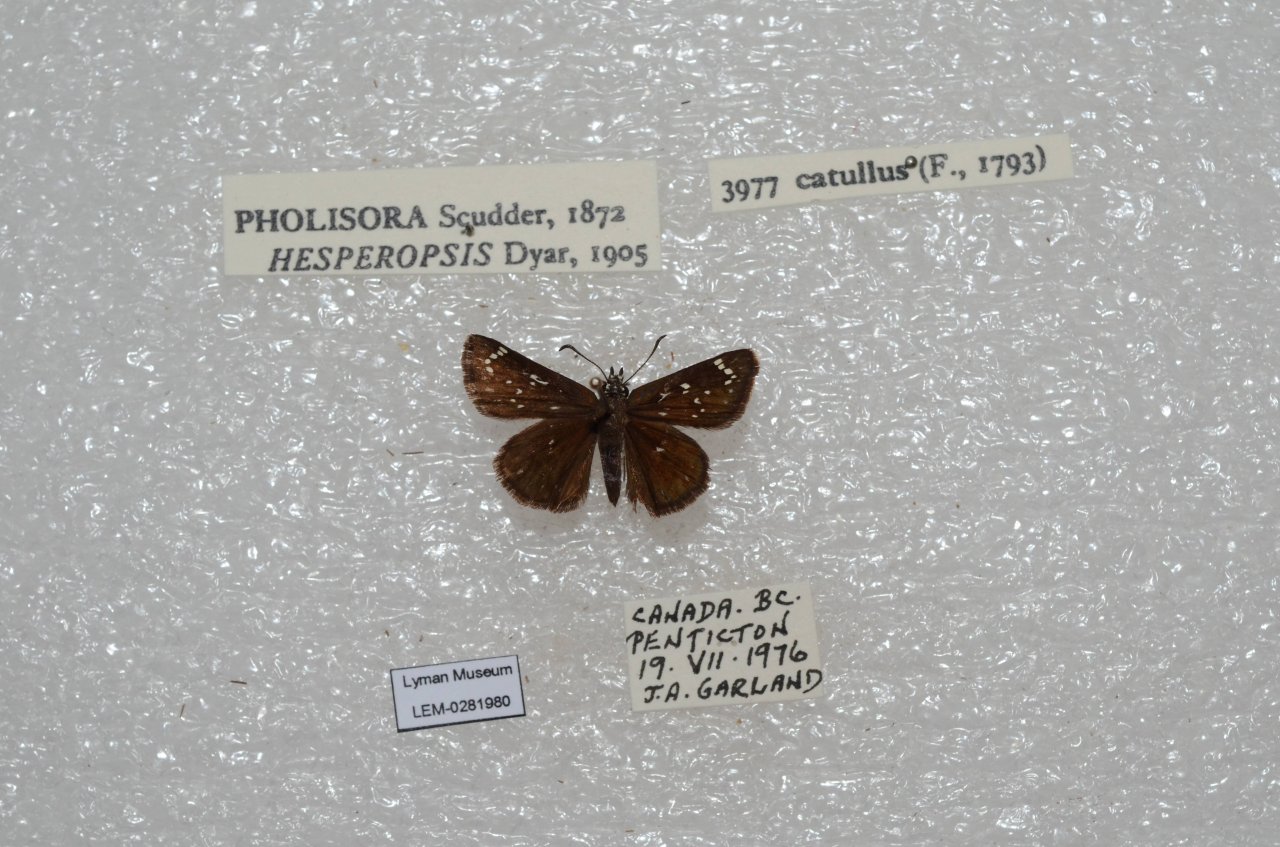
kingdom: Animalia
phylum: Arthropoda
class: Insecta
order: Lepidoptera
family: Hesperiidae
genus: Pholisora
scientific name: Pholisora catullus
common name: Common Sootywing
